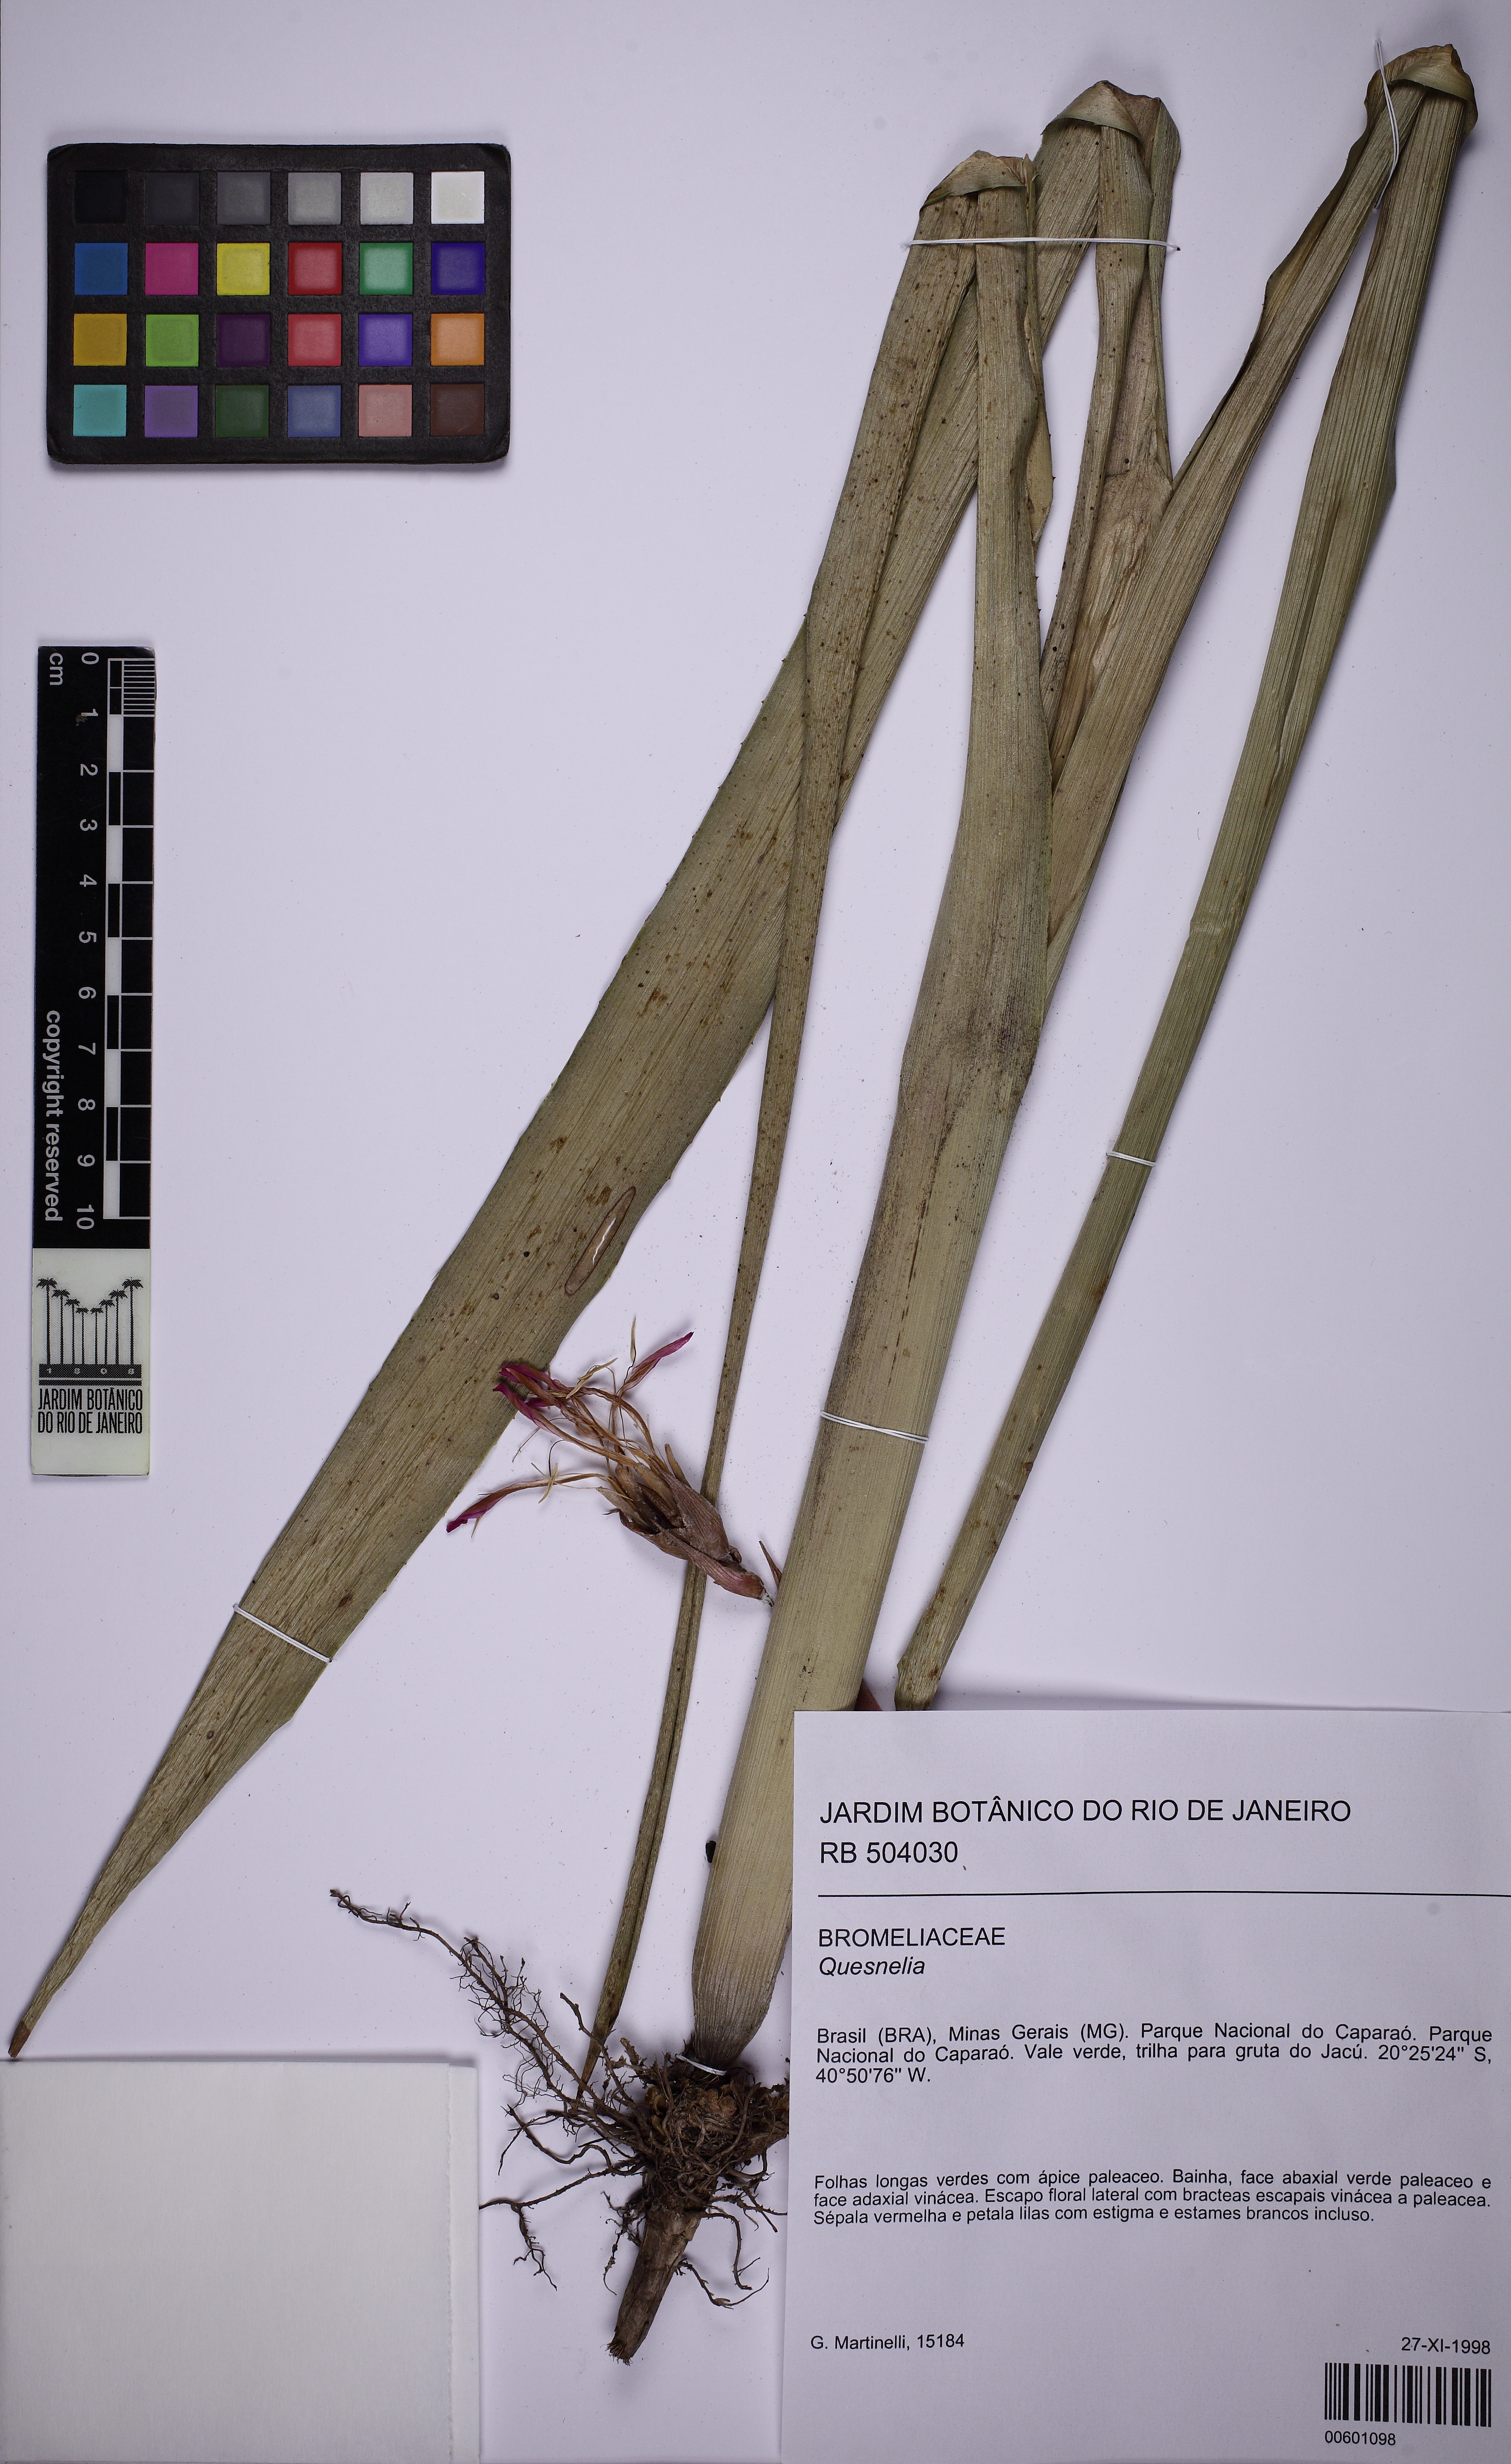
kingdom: Plantae
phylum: Tracheophyta
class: Liliopsida
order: Poales
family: Bromeliaceae
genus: Quesnelia
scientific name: Quesnelia kautskyi
